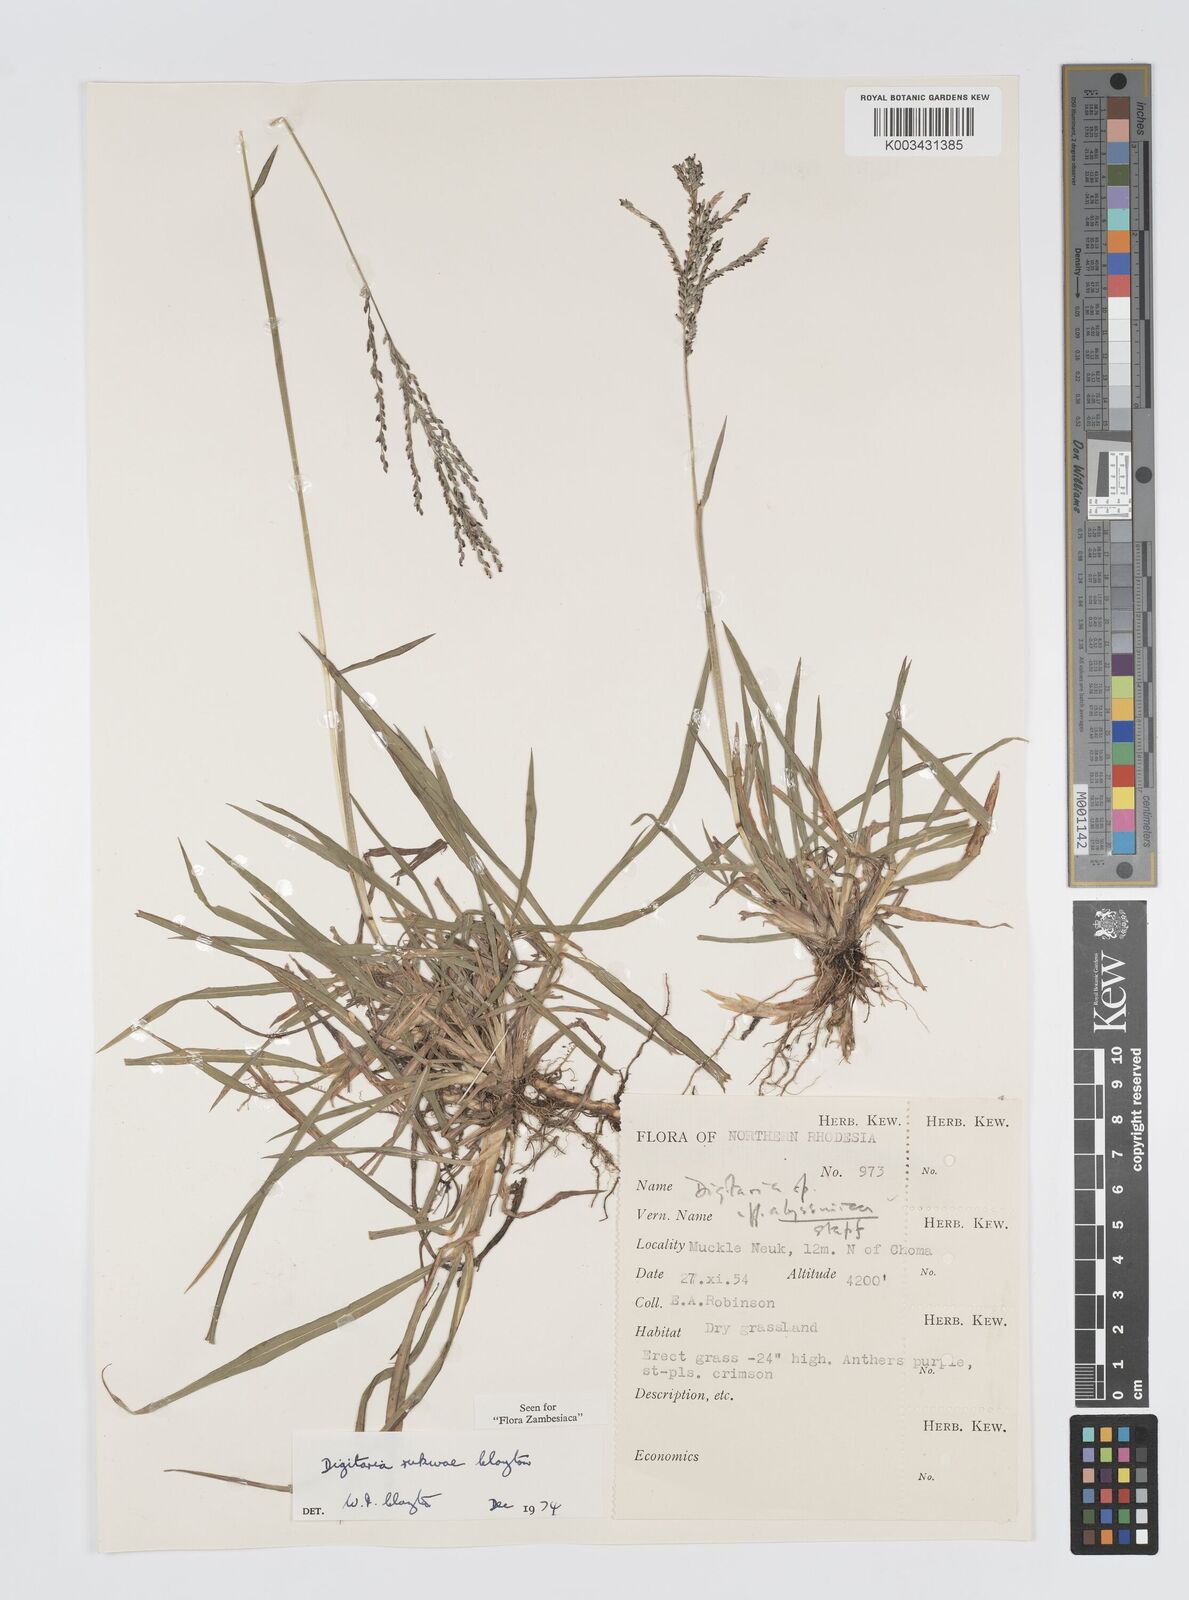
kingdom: Plantae
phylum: Tracheophyta
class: Liliopsida
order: Poales
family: Poaceae
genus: Digitaria
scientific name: Digitaria rukwae
